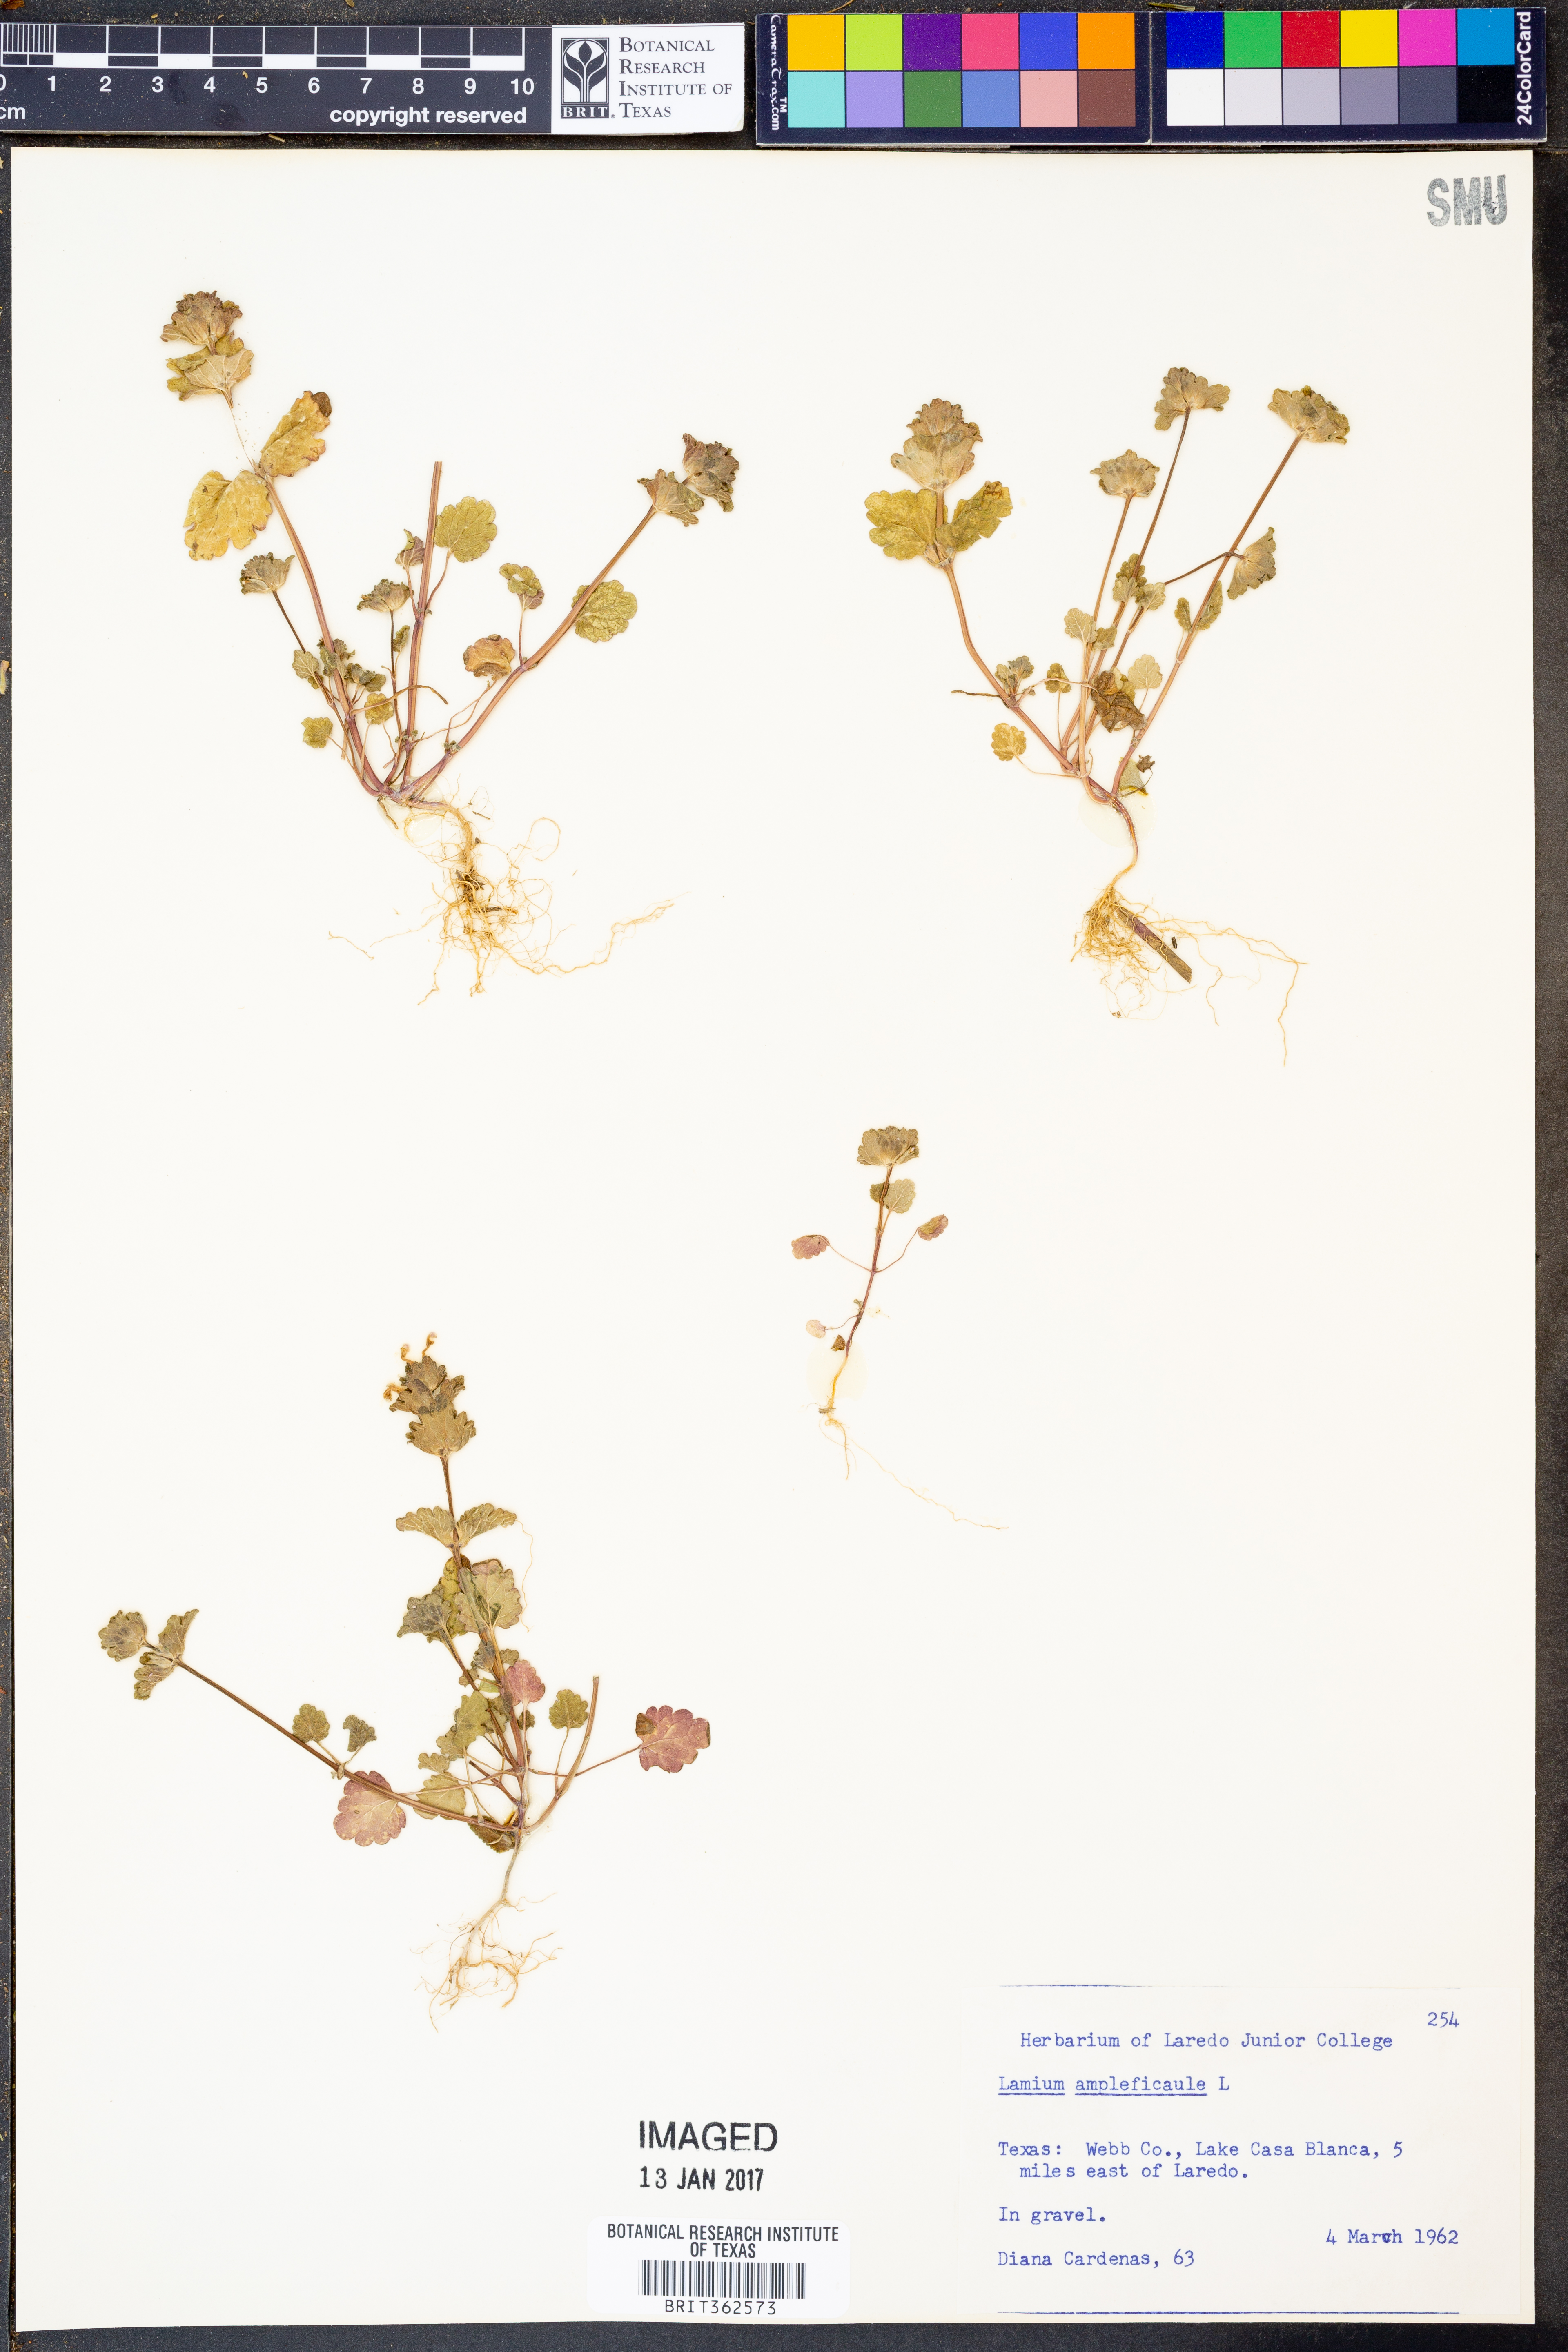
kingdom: Plantae
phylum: Tracheophyta
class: Magnoliopsida
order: Lamiales
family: Lamiaceae
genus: Lamium
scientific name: Lamium amplexicaule
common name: Henbit dead-nettle
